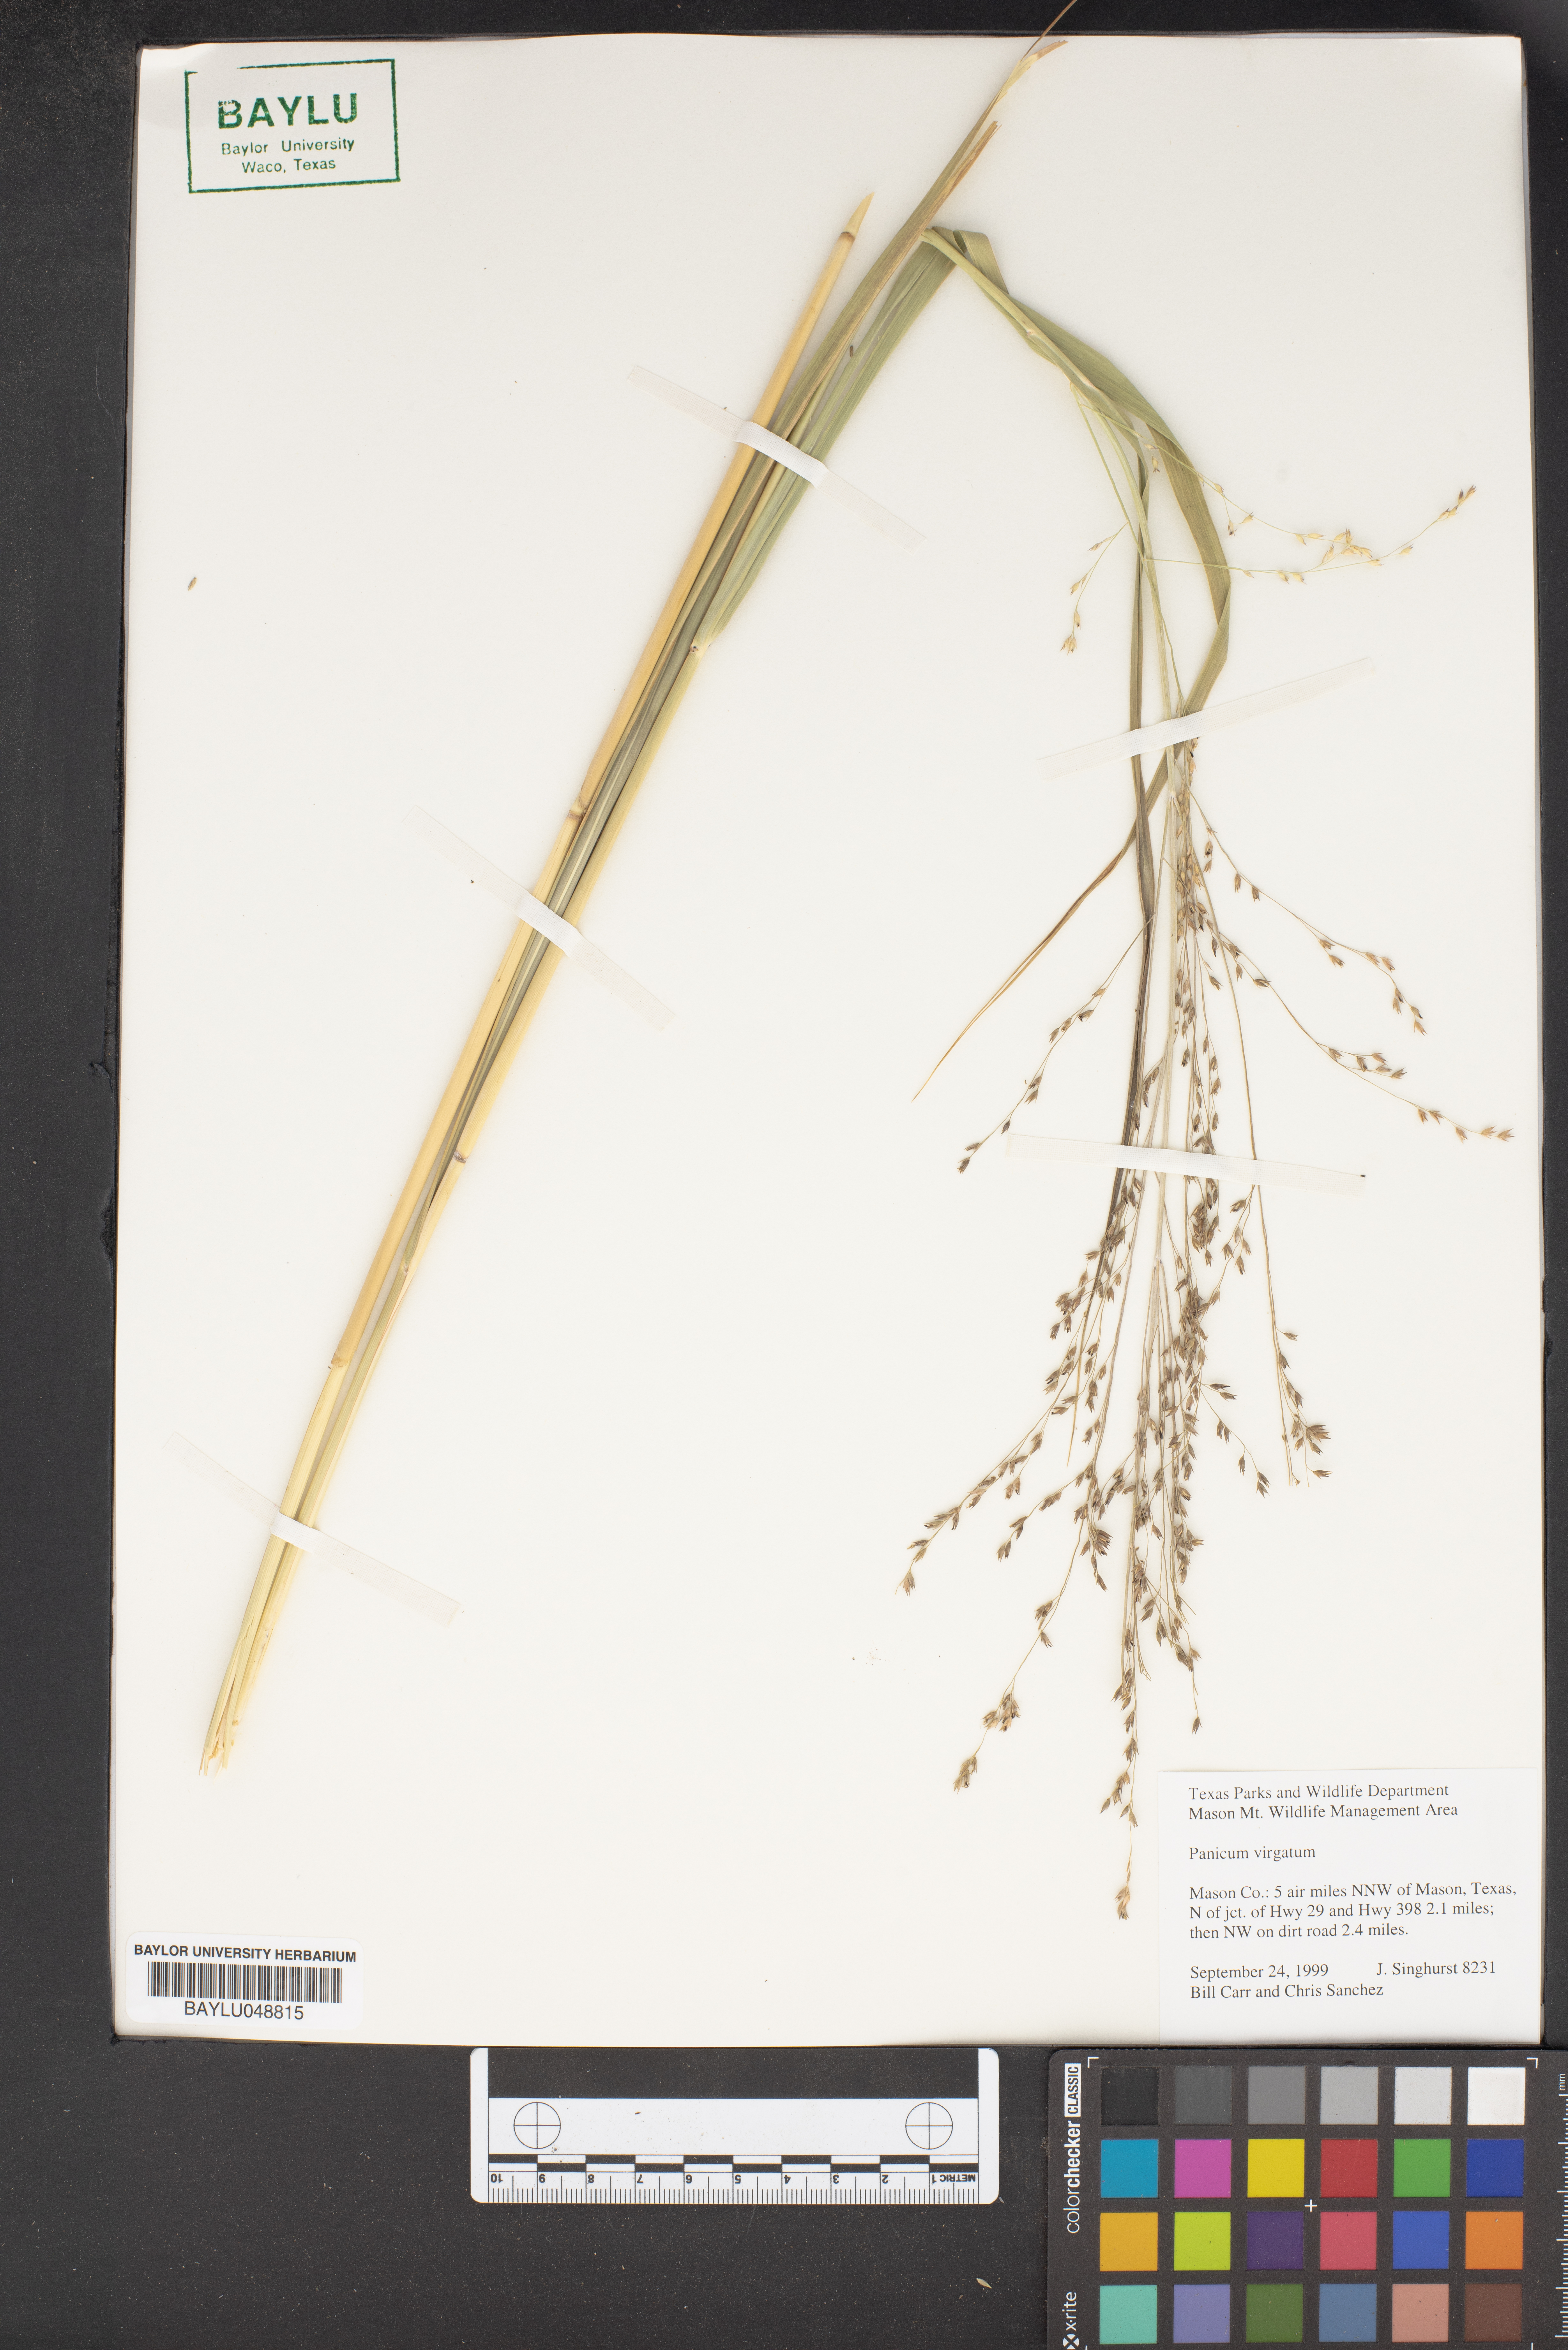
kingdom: Plantae
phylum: Tracheophyta
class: Liliopsida
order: Poales
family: Poaceae
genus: Panicum
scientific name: Panicum virgatum
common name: Switchgrass
